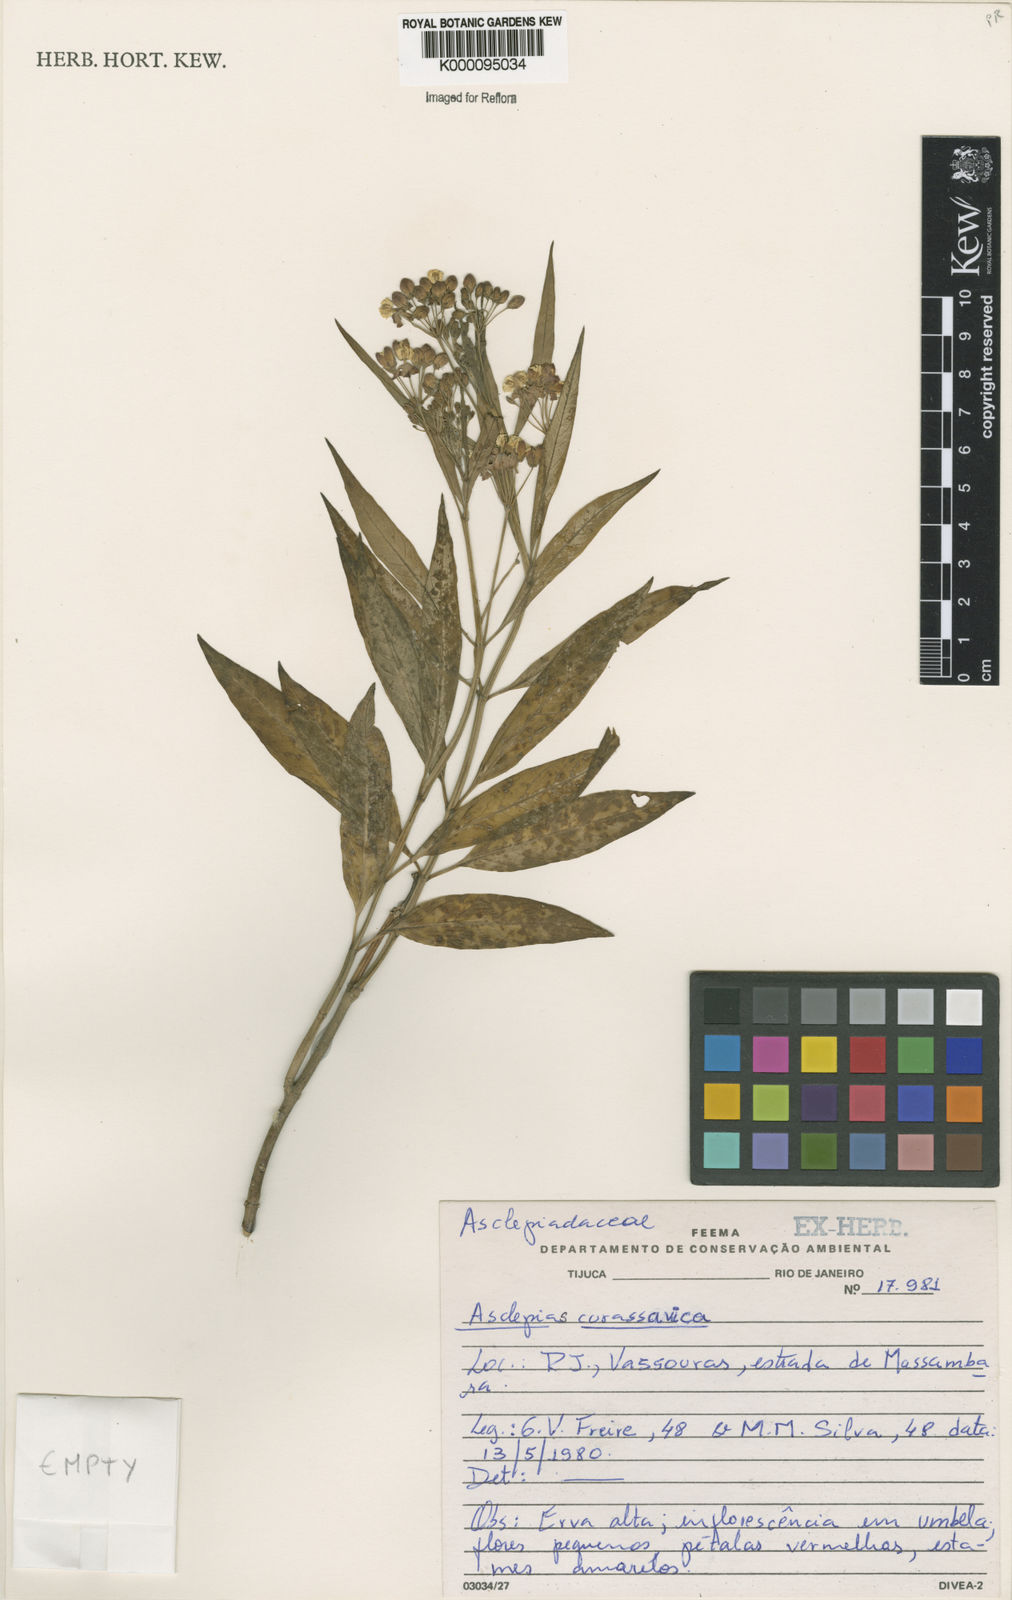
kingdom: Plantae
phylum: Tracheophyta
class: Magnoliopsida
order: Gentianales
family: Apocynaceae
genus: Asclepias
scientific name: Asclepias curassavica
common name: Bloodflower
